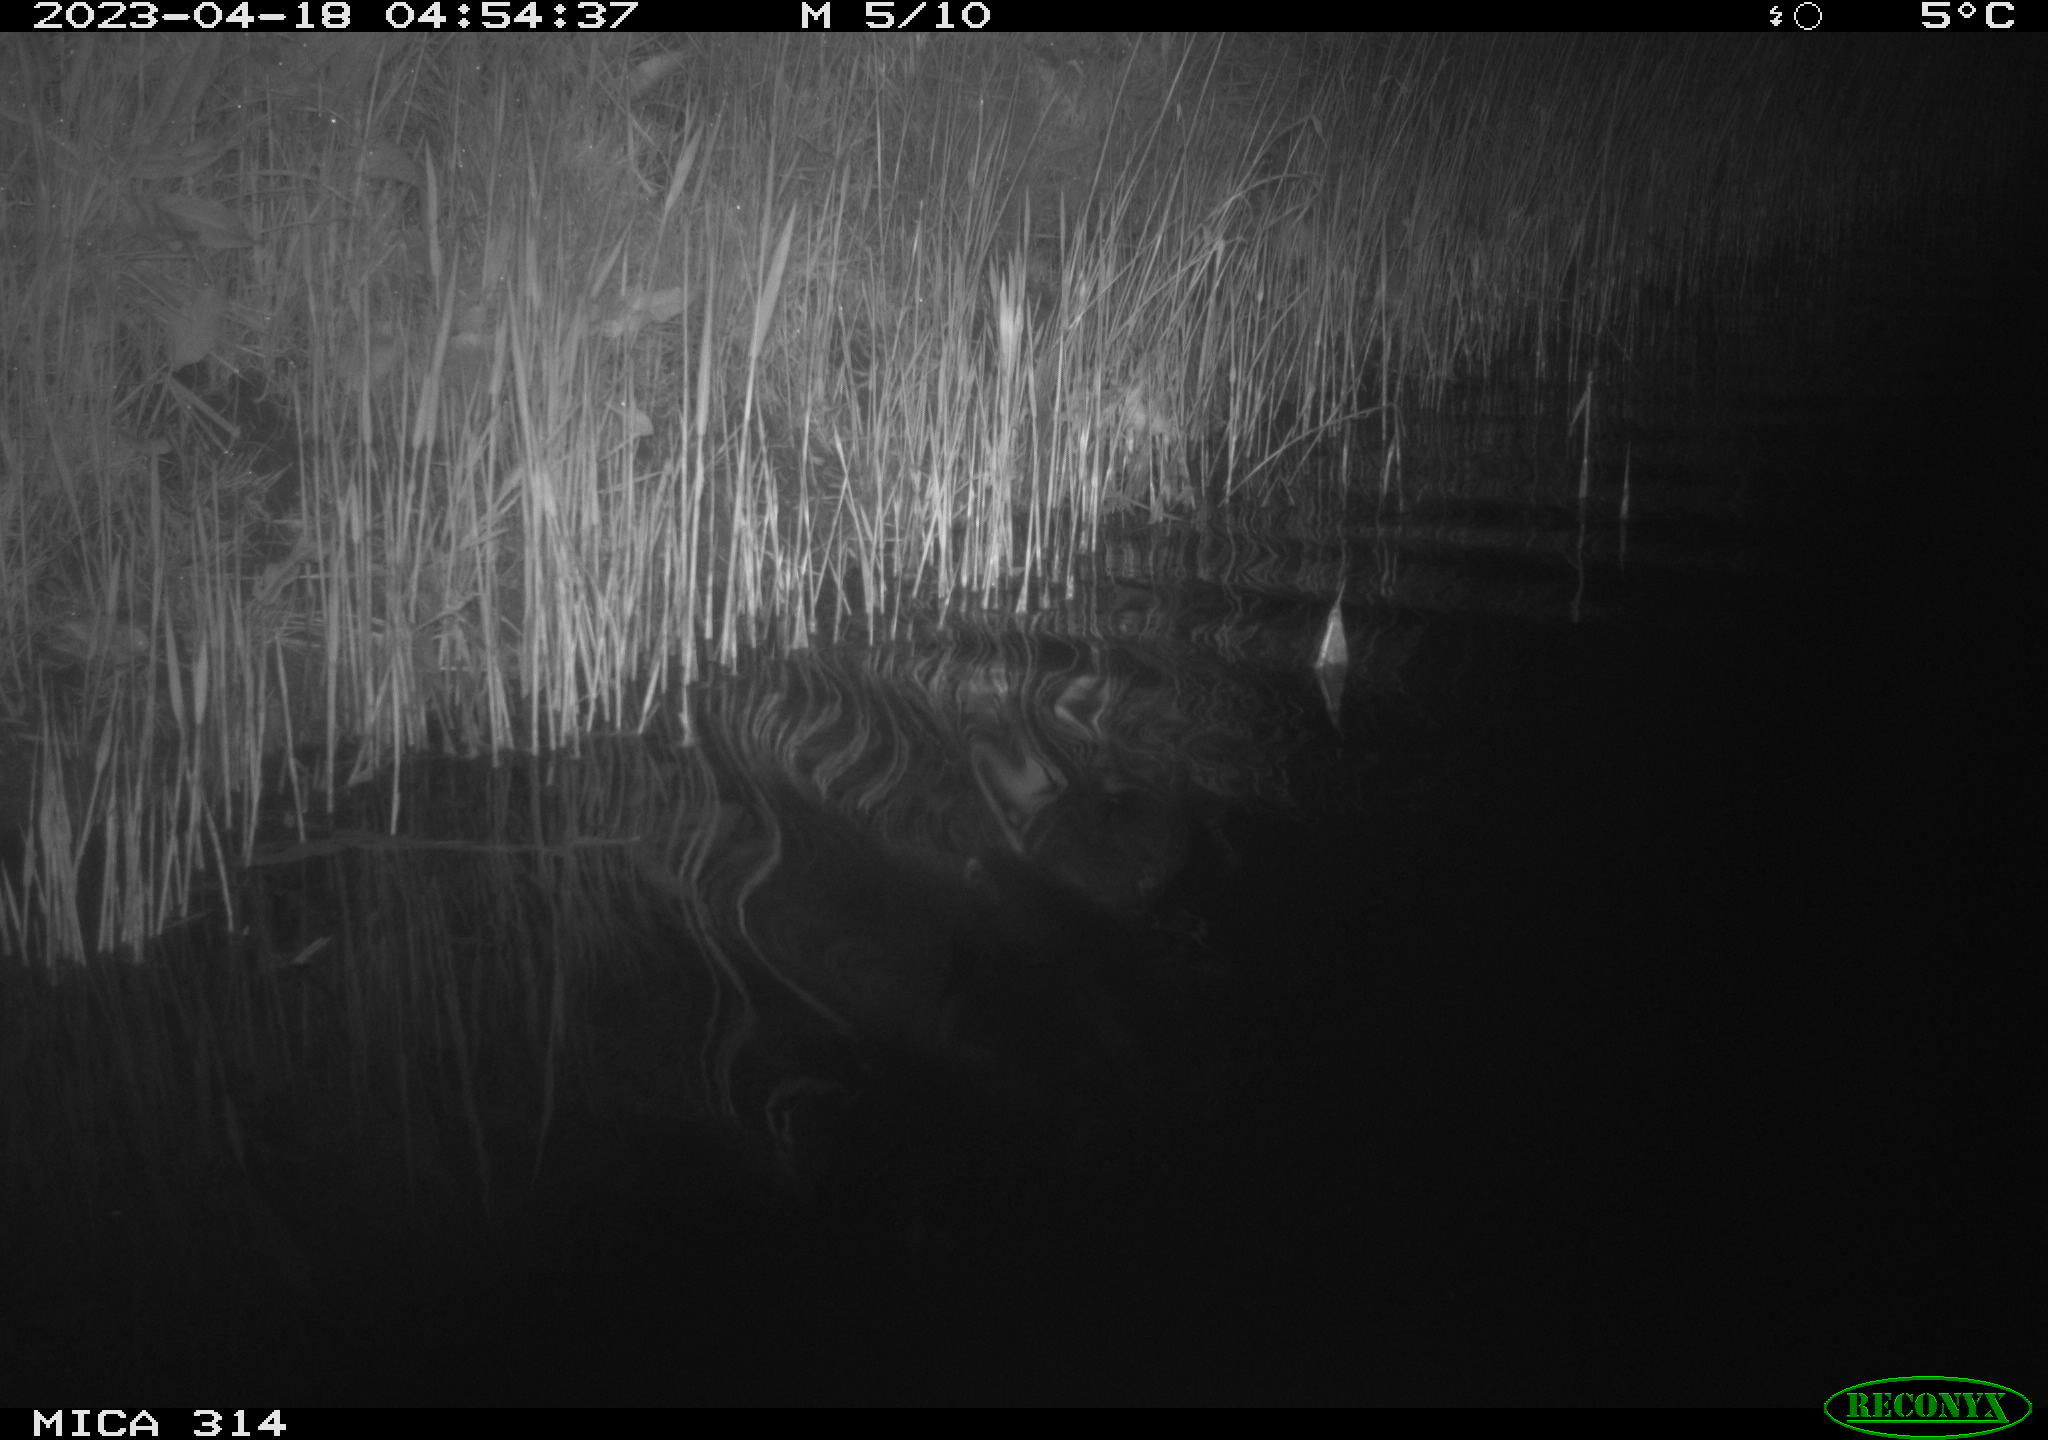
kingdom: Animalia
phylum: Chordata
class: Aves
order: Anseriformes
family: Anatidae
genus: Anas
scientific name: Anas
